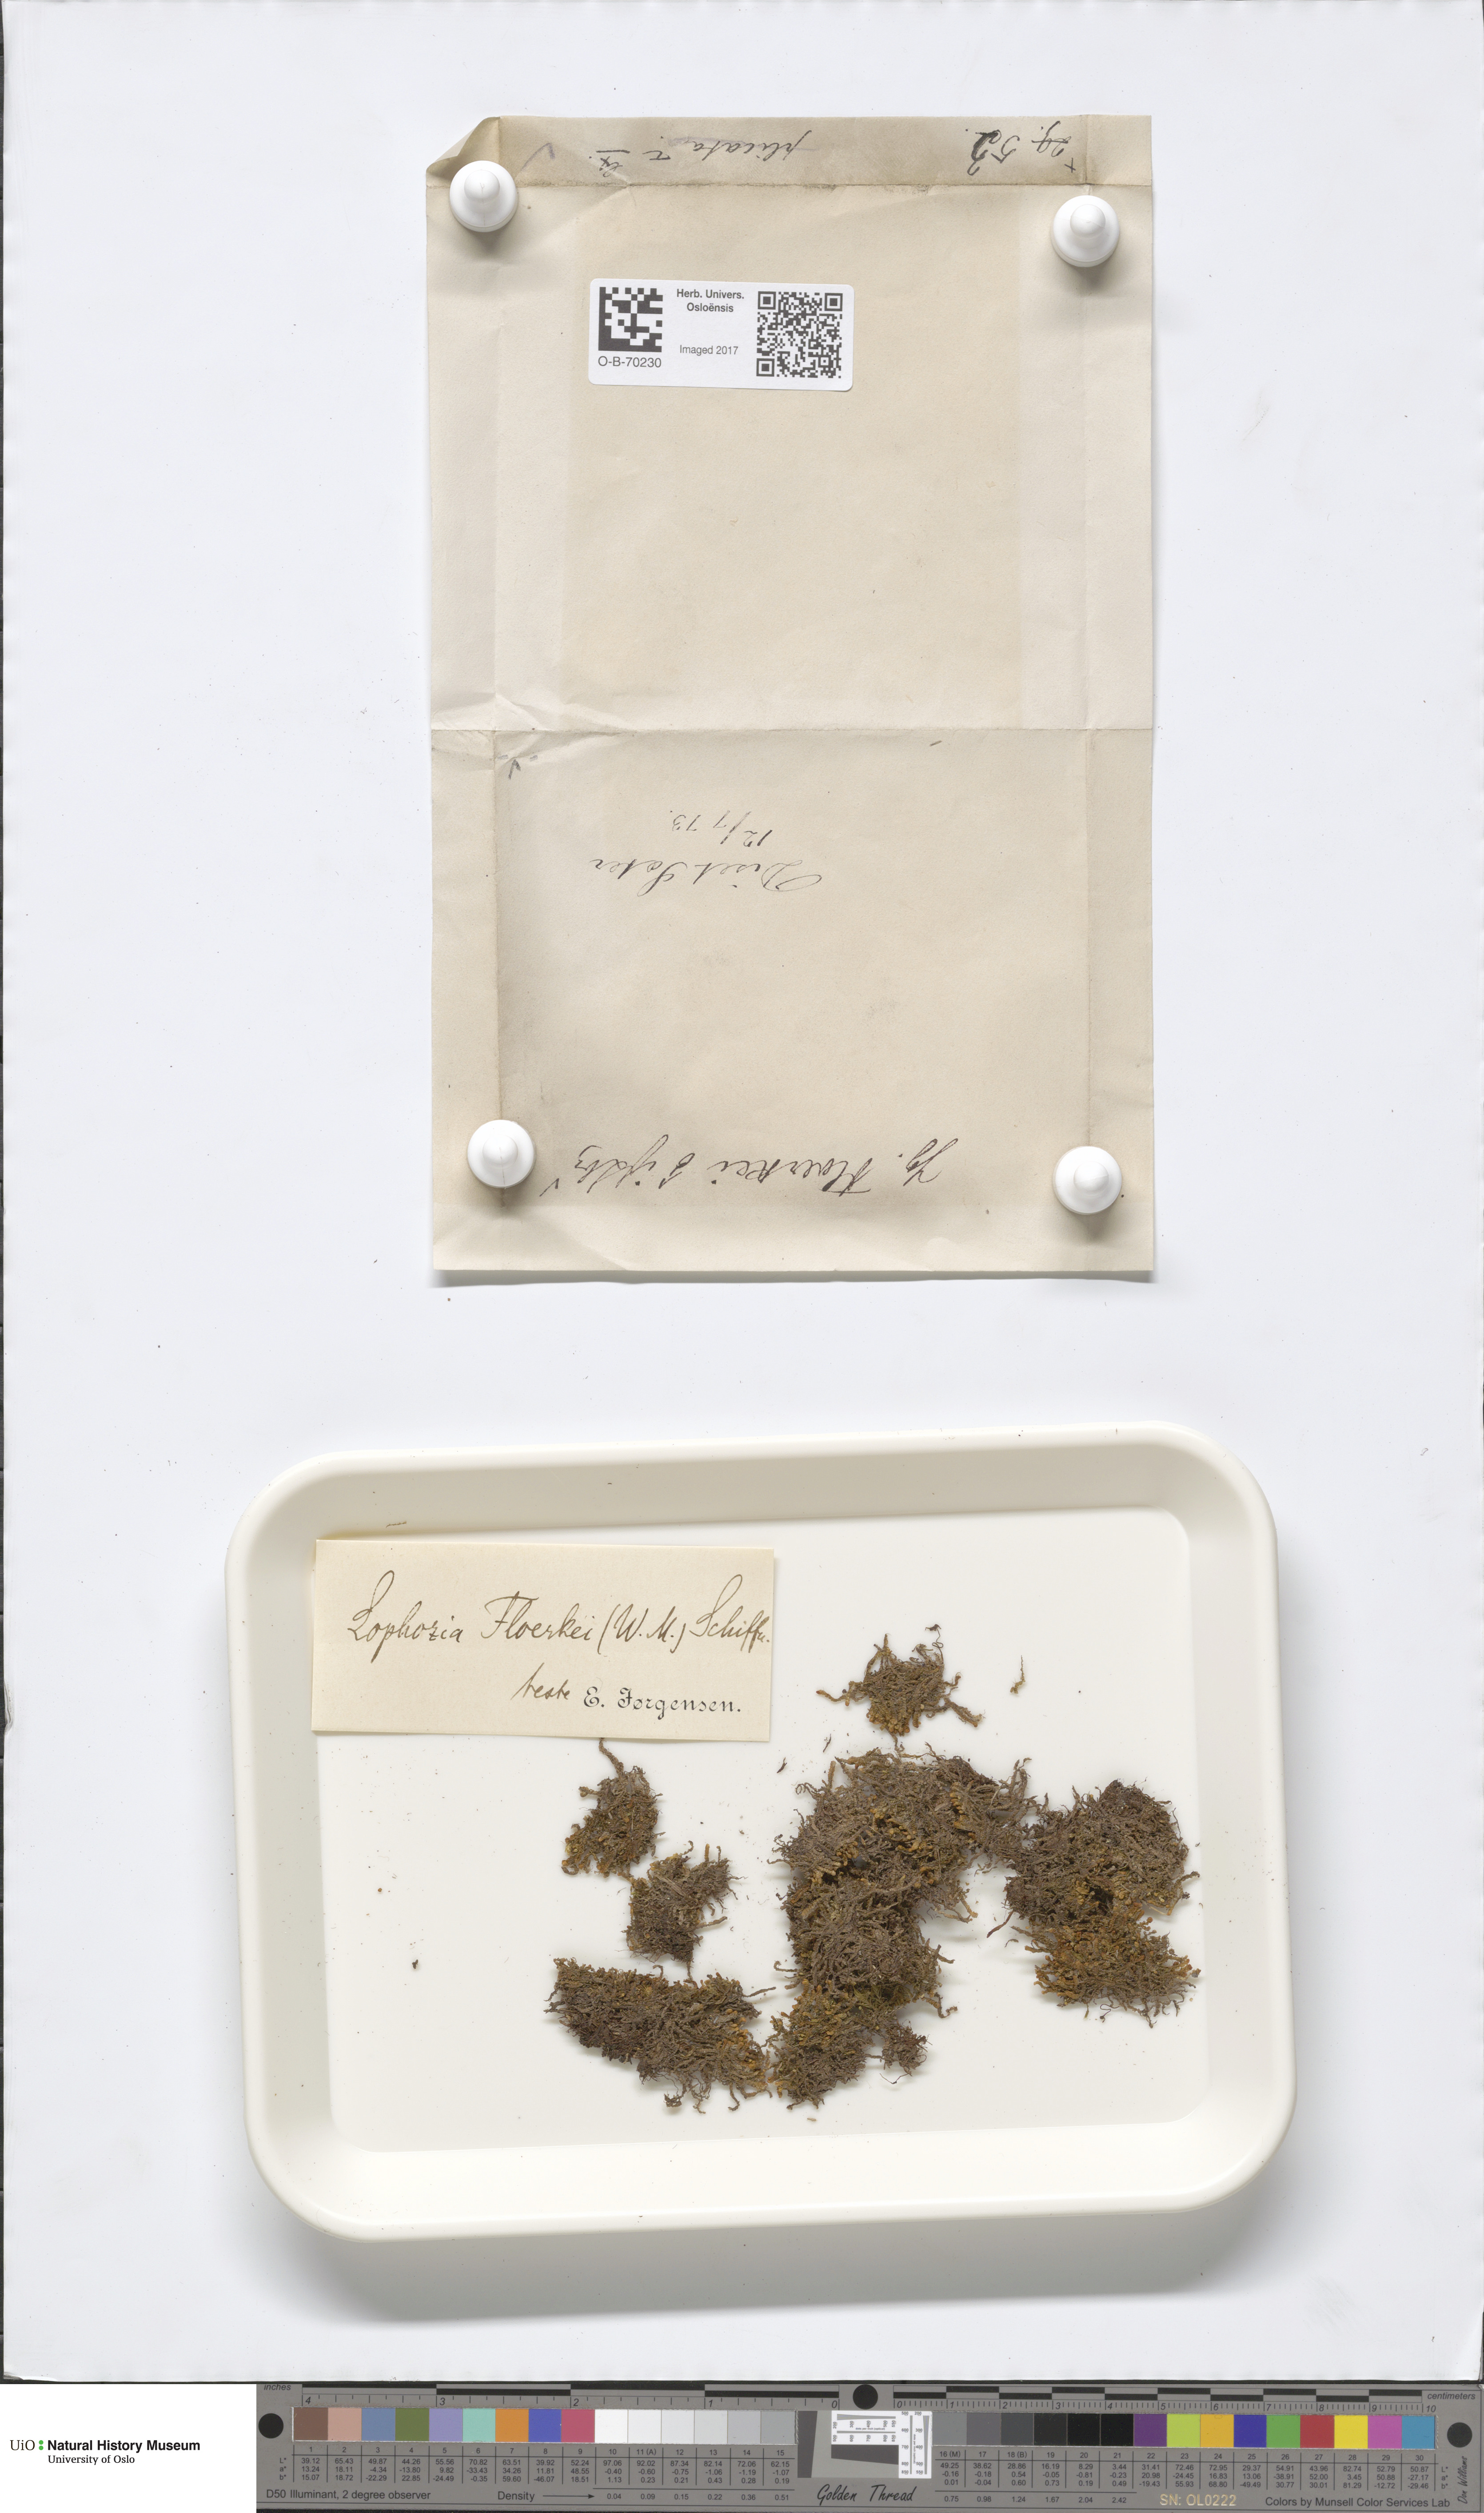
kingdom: Plantae
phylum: Marchantiophyta
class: Jungermanniopsida
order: Jungermanniales
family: Anastrophyllaceae
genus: Neoorthocaulis
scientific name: Neoorthocaulis floerkei
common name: Floerke's barbilophozia
